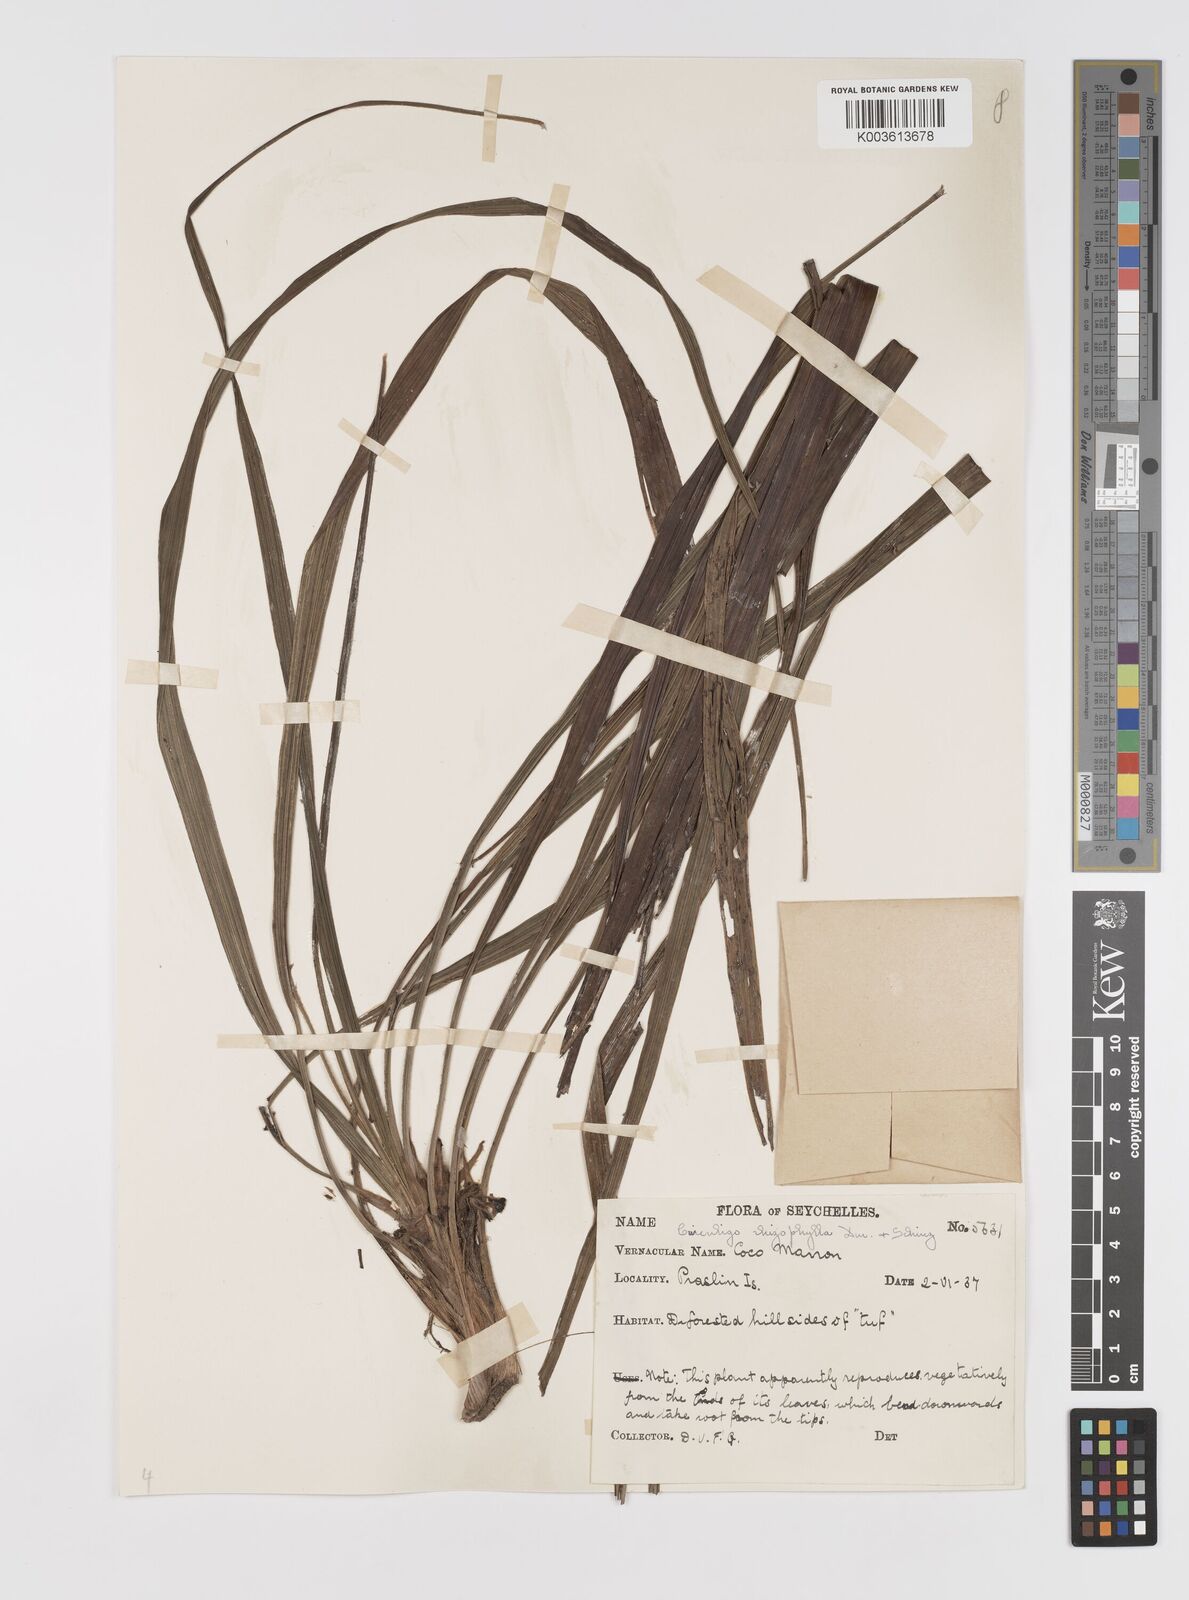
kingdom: Plantae
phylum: Tracheophyta
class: Liliopsida
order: Asparagales
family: Hypoxidaceae
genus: Curculigo
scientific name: Curculigo rhizophylla
